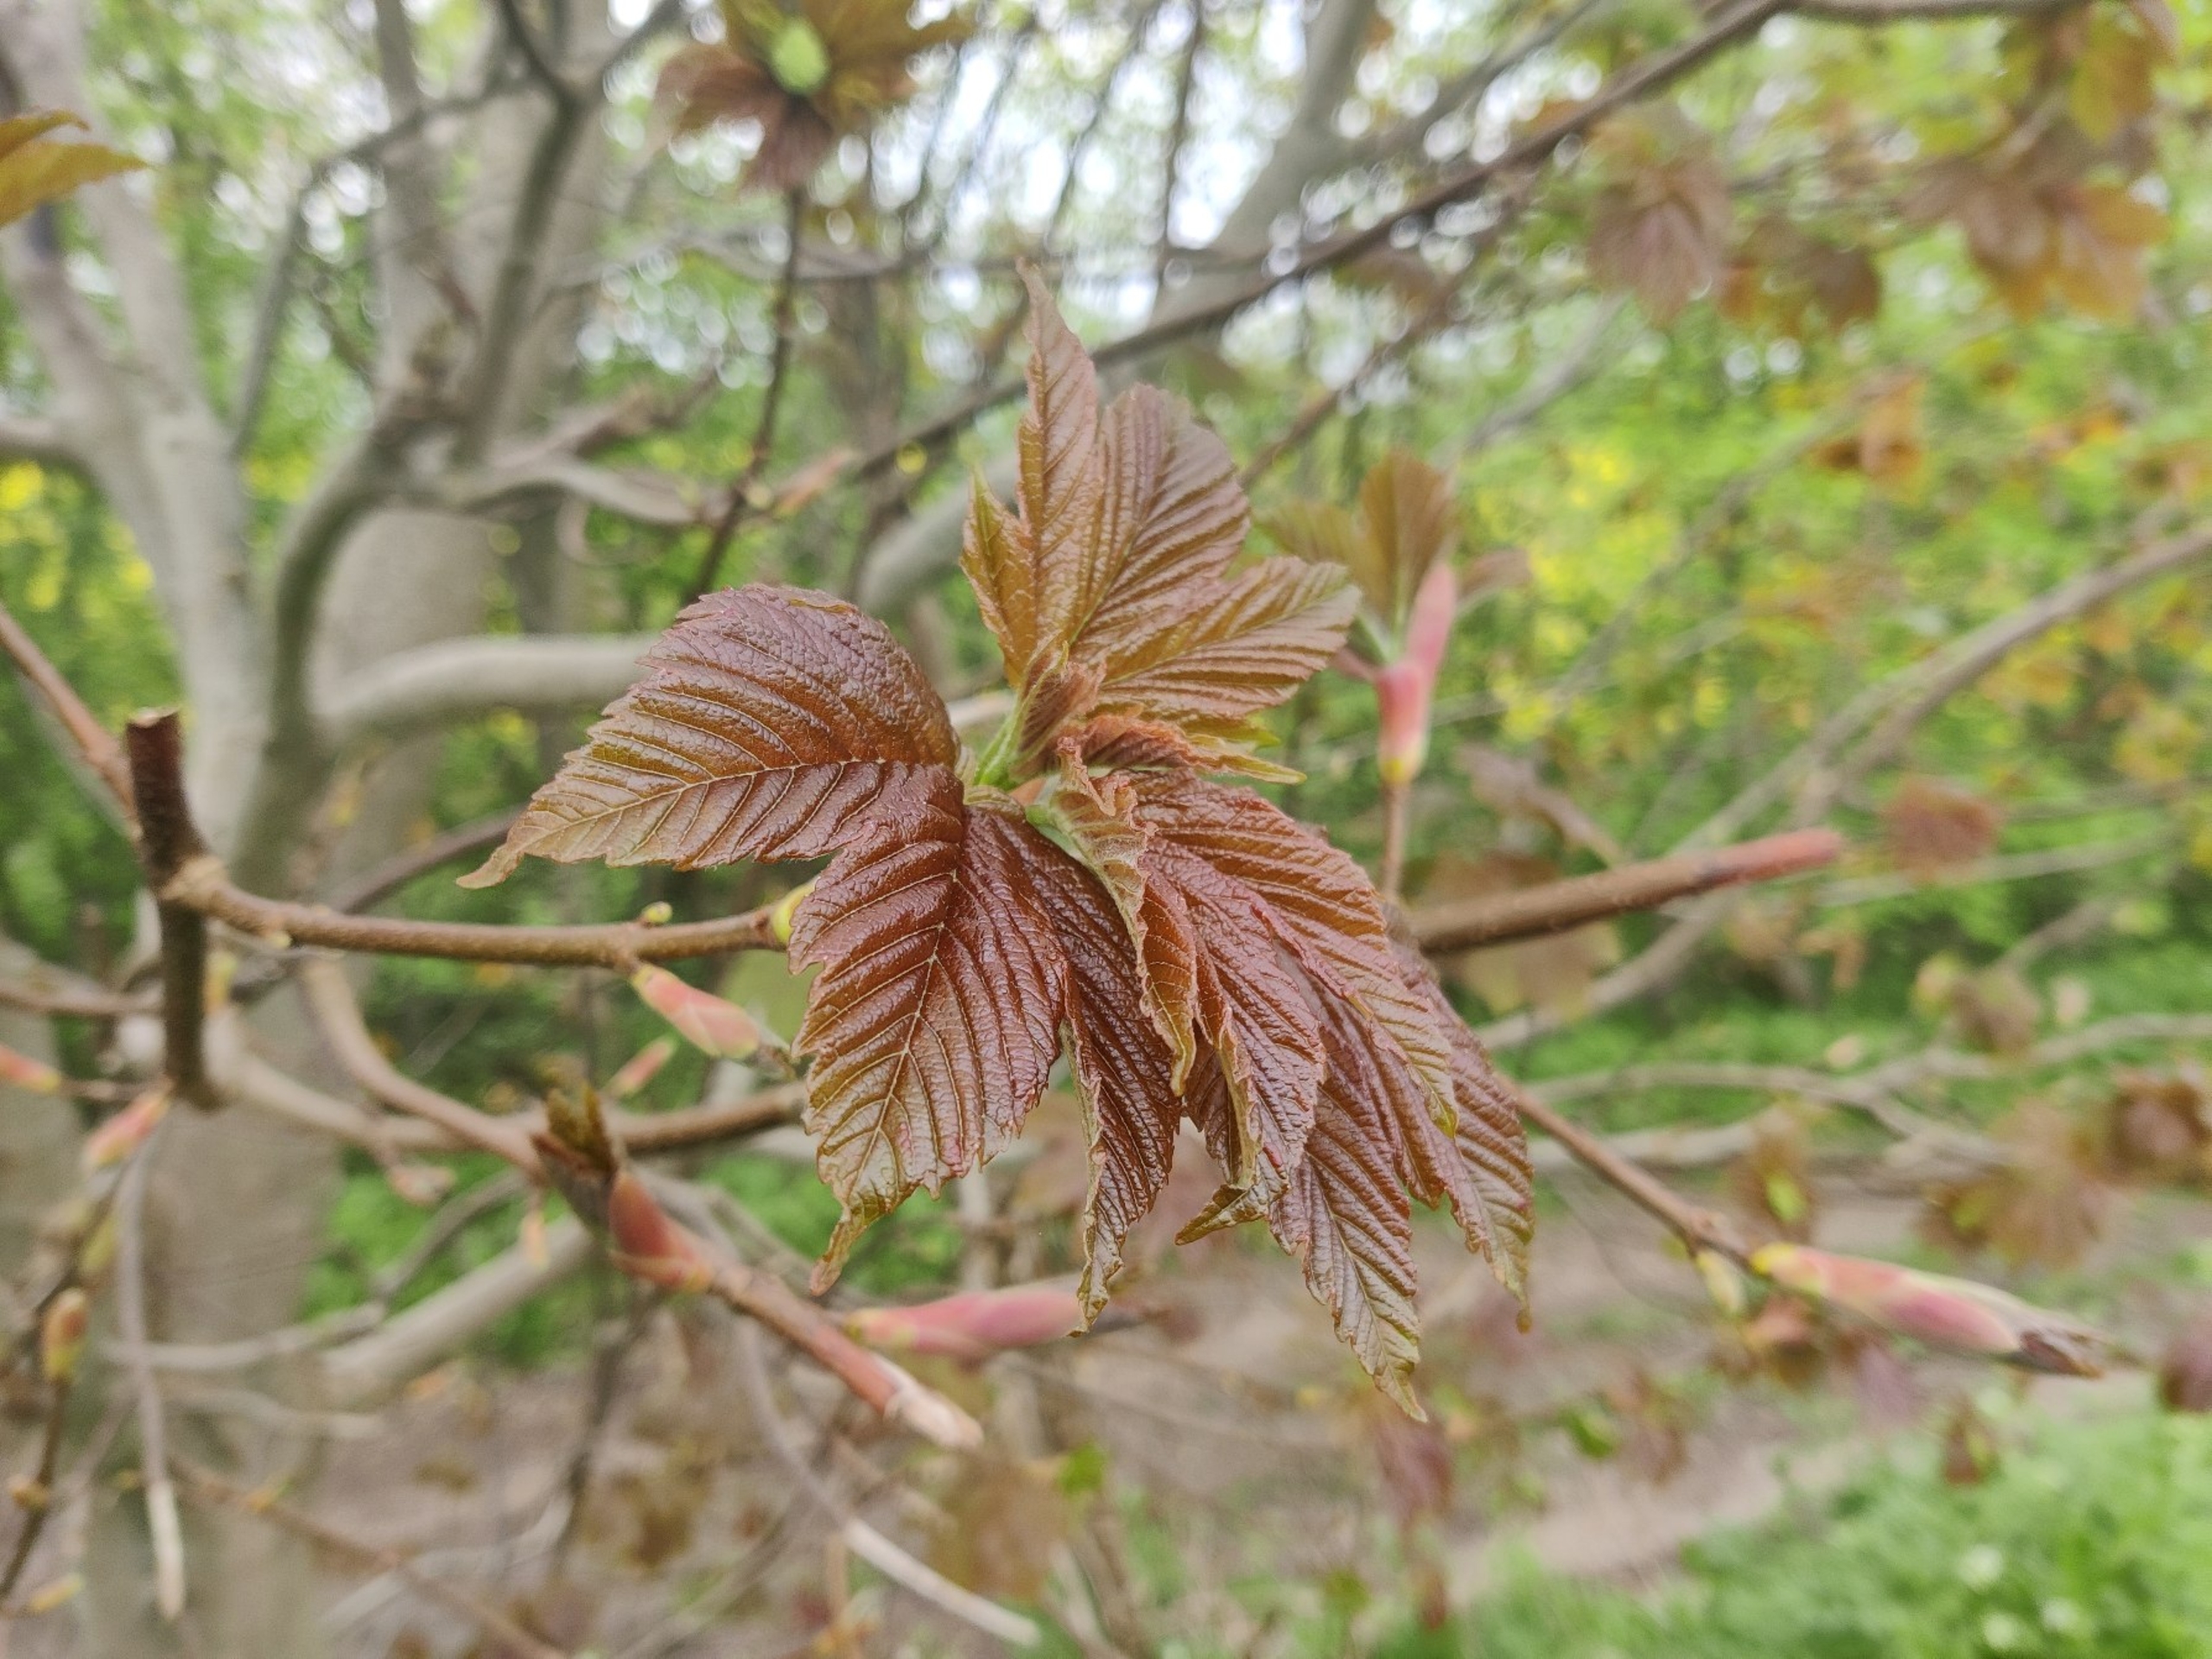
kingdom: Plantae
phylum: Tracheophyta
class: Magnoliopsida
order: Sapindales
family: Sapindaceae
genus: Acer
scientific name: Acer pseudoplatanus
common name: Ahorn
